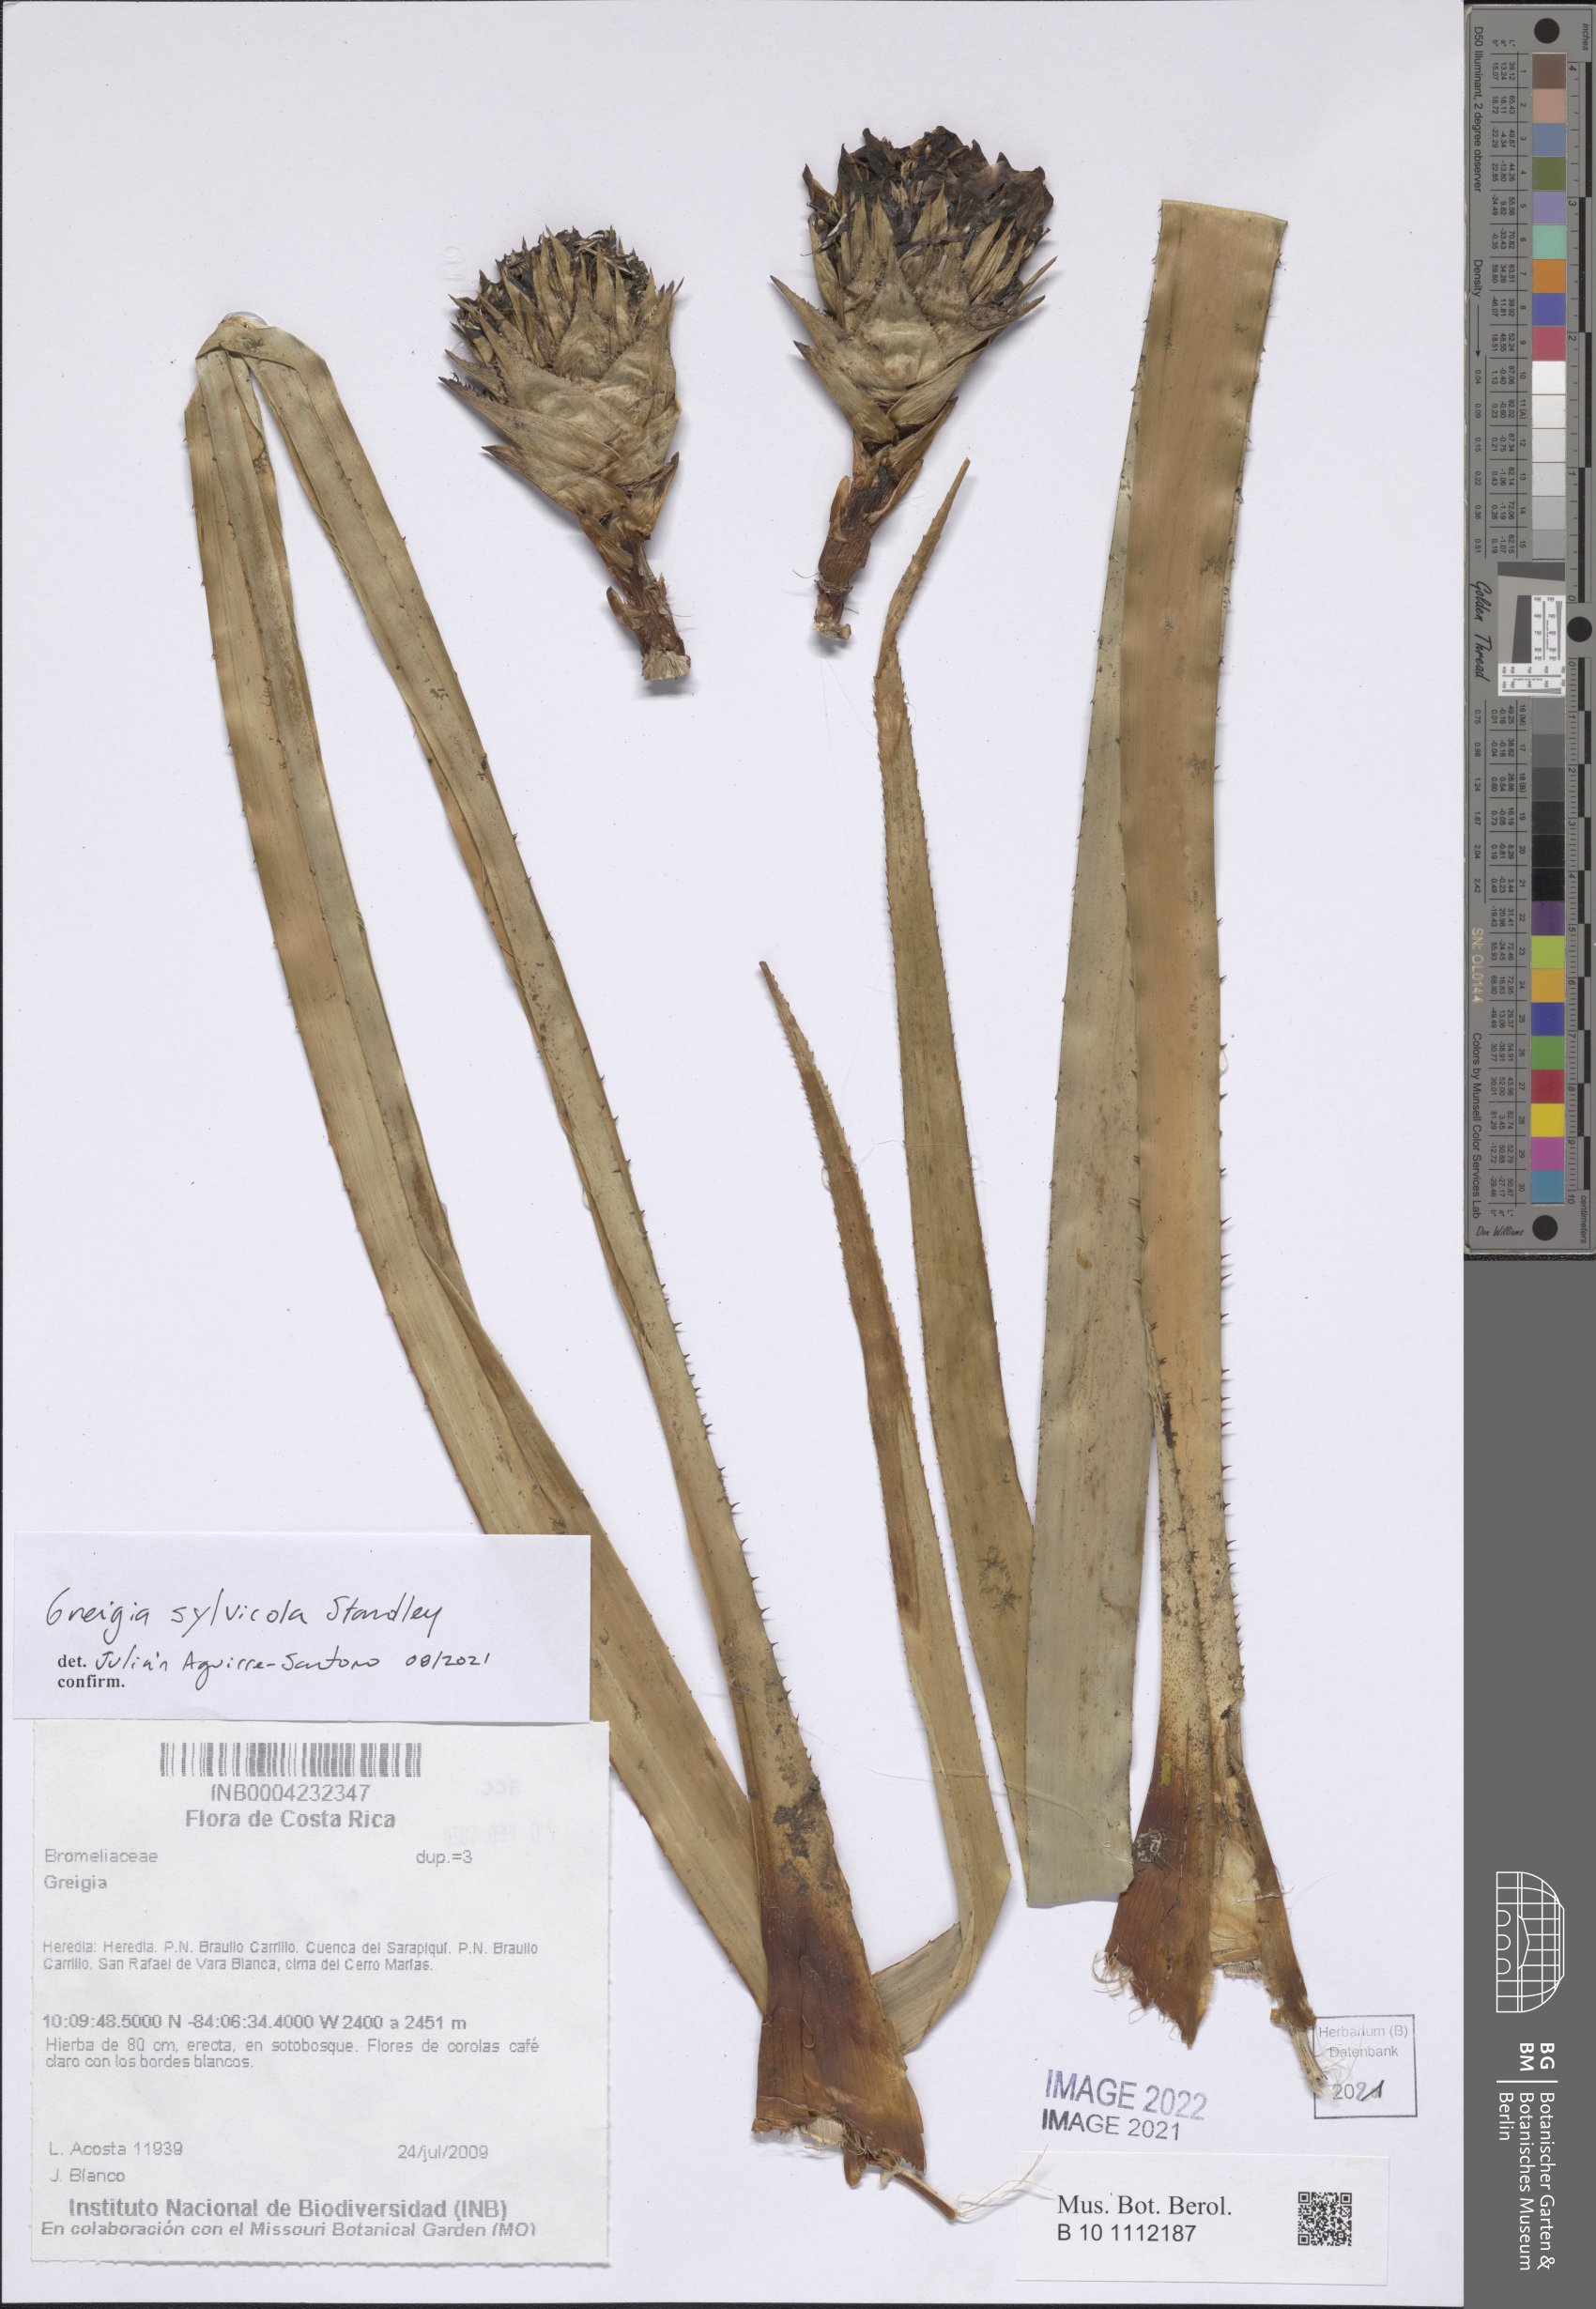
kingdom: Plantae
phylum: Tracheophyta
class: Liliopsida
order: Poales
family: Bromeliaceae
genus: Greigia
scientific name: Greigia sylvicola
